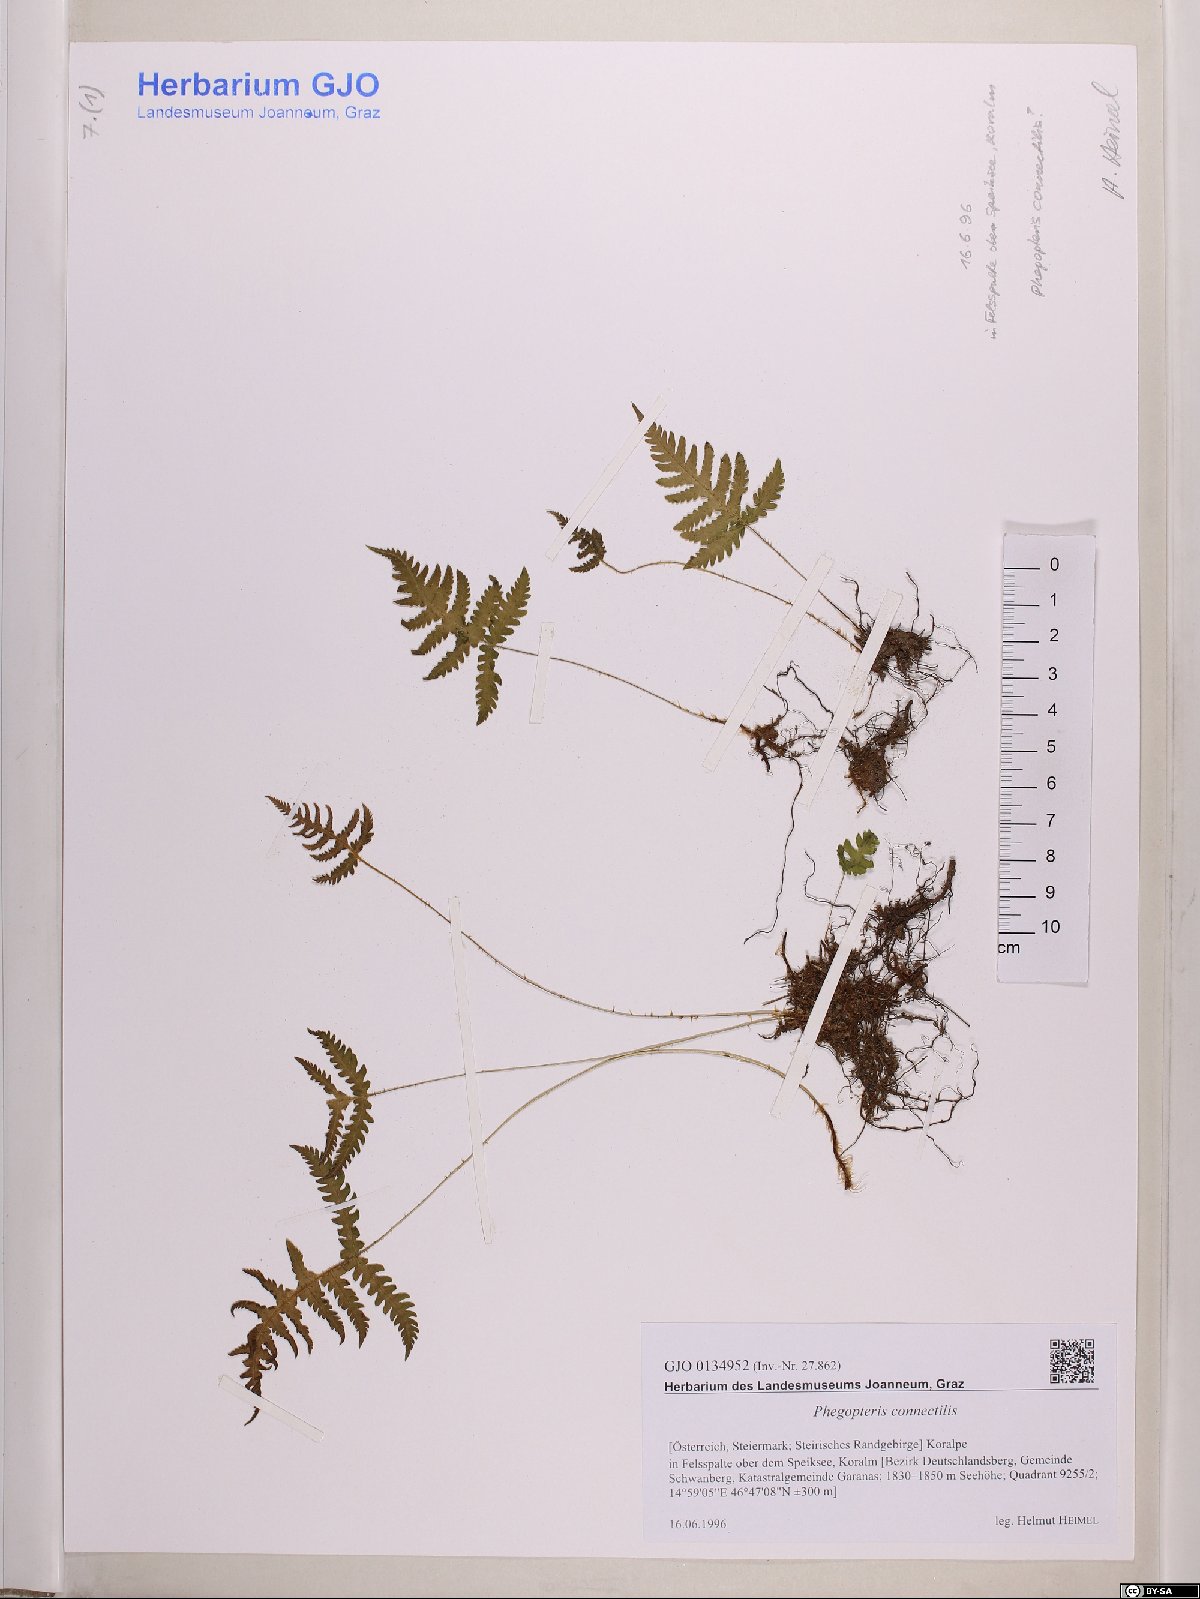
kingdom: Plantae
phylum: Tracheophyta
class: Polypodiopsida
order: Polypodiales
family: Thelypteridaceae
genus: Phegopteris
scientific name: Phegopteris connectilis
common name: Beech fern
